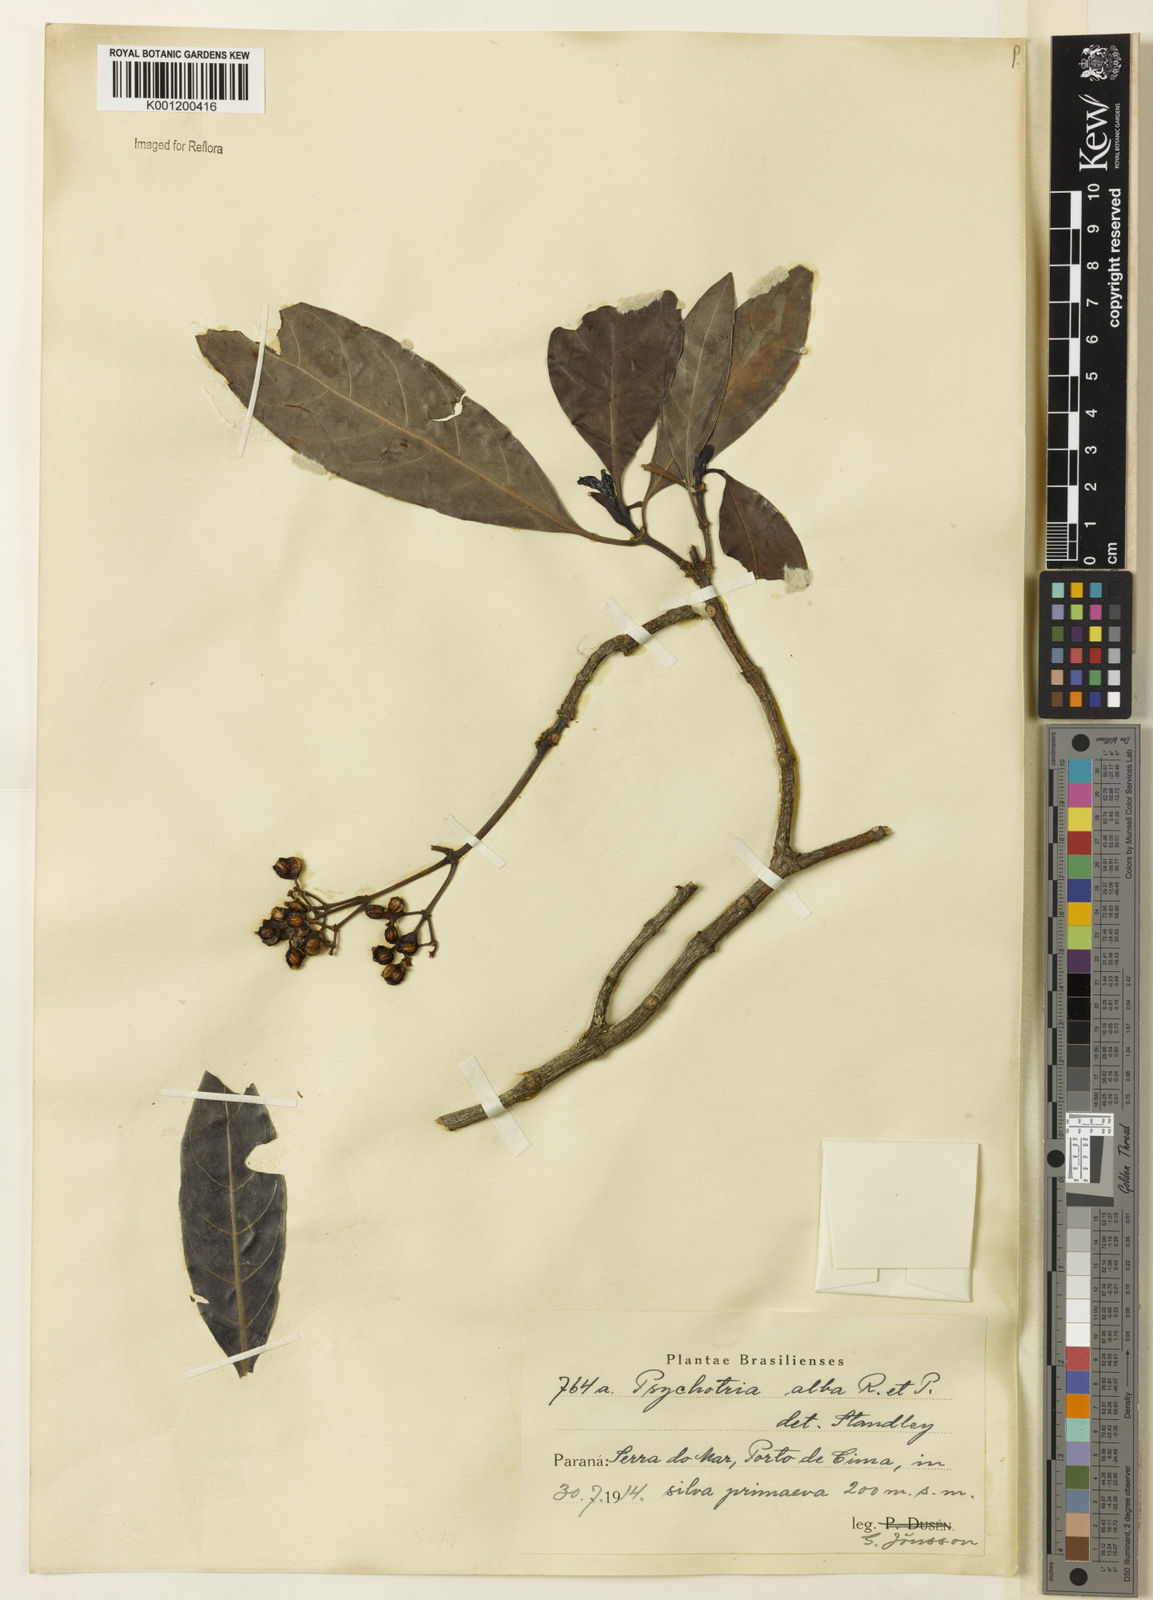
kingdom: Plantae
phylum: Tracheophyta
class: Magnoliopsida
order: Gentianales
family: Rubiaceae
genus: Psychotria
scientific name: Psychotria carthagenensis
